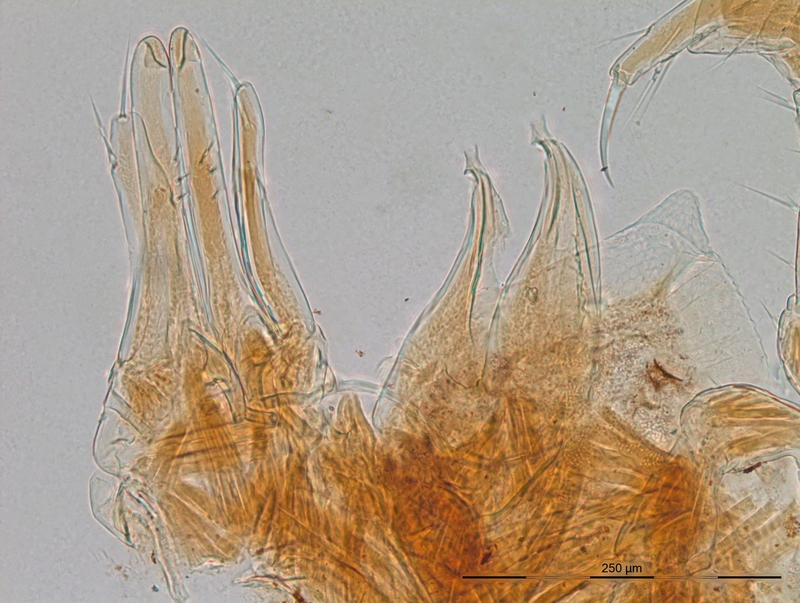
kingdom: Animalia
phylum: Arthropoda
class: Diplopoda
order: Julida
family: Nemasomatidae
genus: Thalassisobates
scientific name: Thalassisobates littoralis
